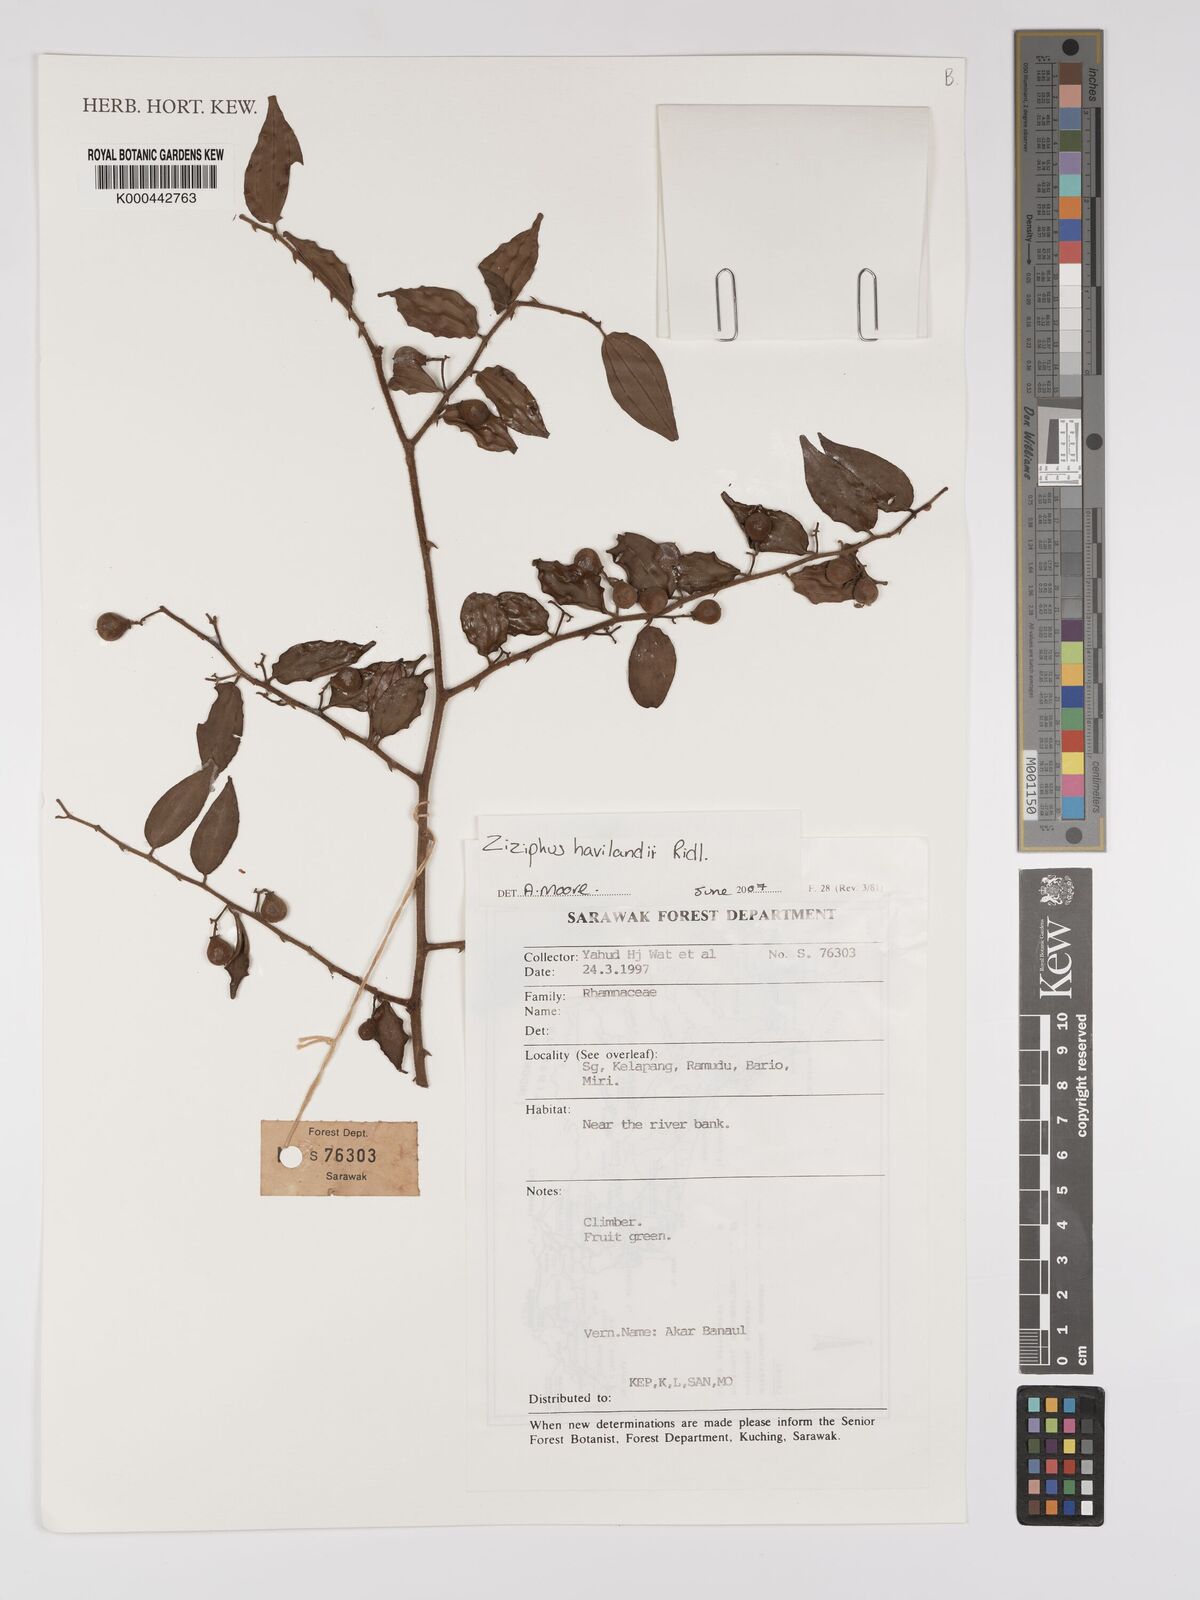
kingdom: Plantae
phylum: Tracheophyta
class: Magnoliopsida
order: Rosales
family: Rhamnaceae
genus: Ziziphus
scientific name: Ziziphus havilandii
